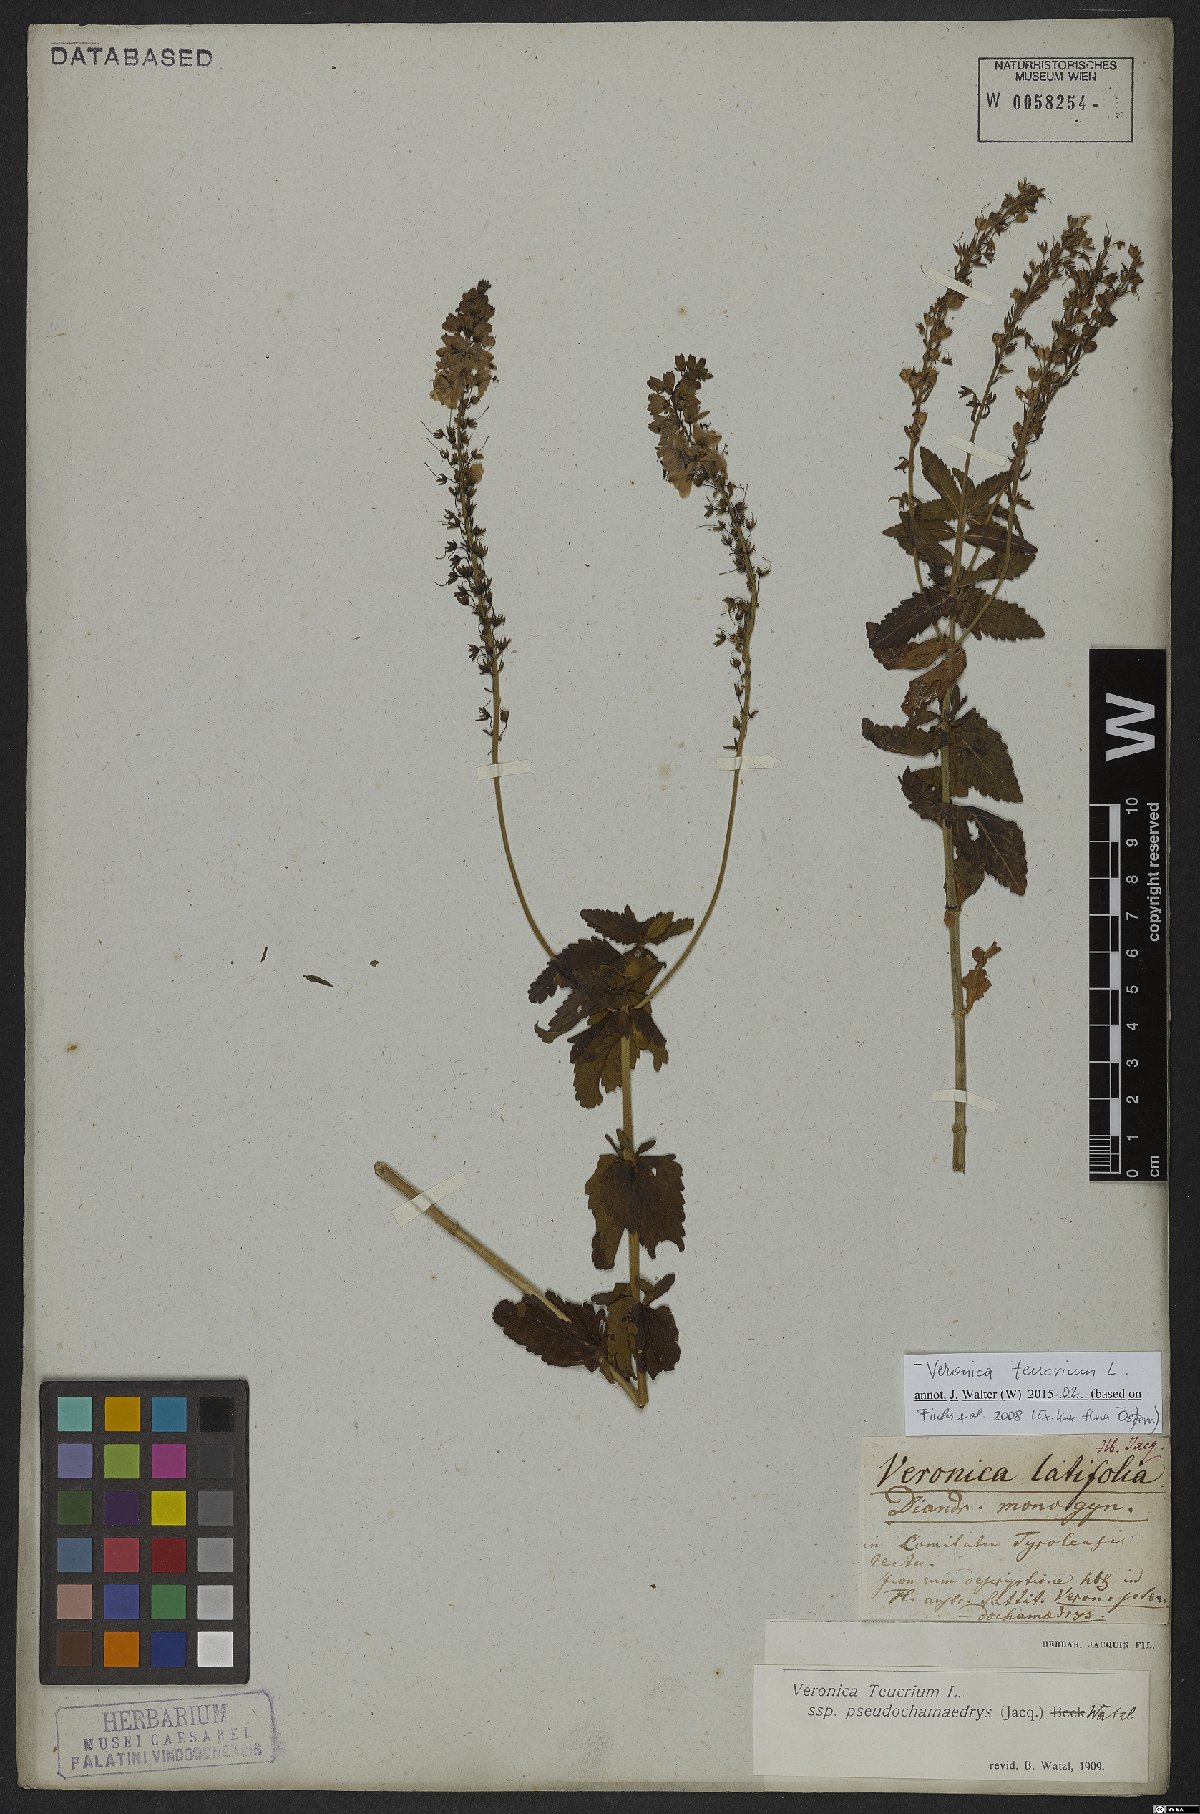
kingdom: Plantae
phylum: Tracheophyta
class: Magnoliopsida
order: Lamiales
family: Plantaginaceae
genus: Veronica
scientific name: Veronica teucrium
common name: Large speedwell
